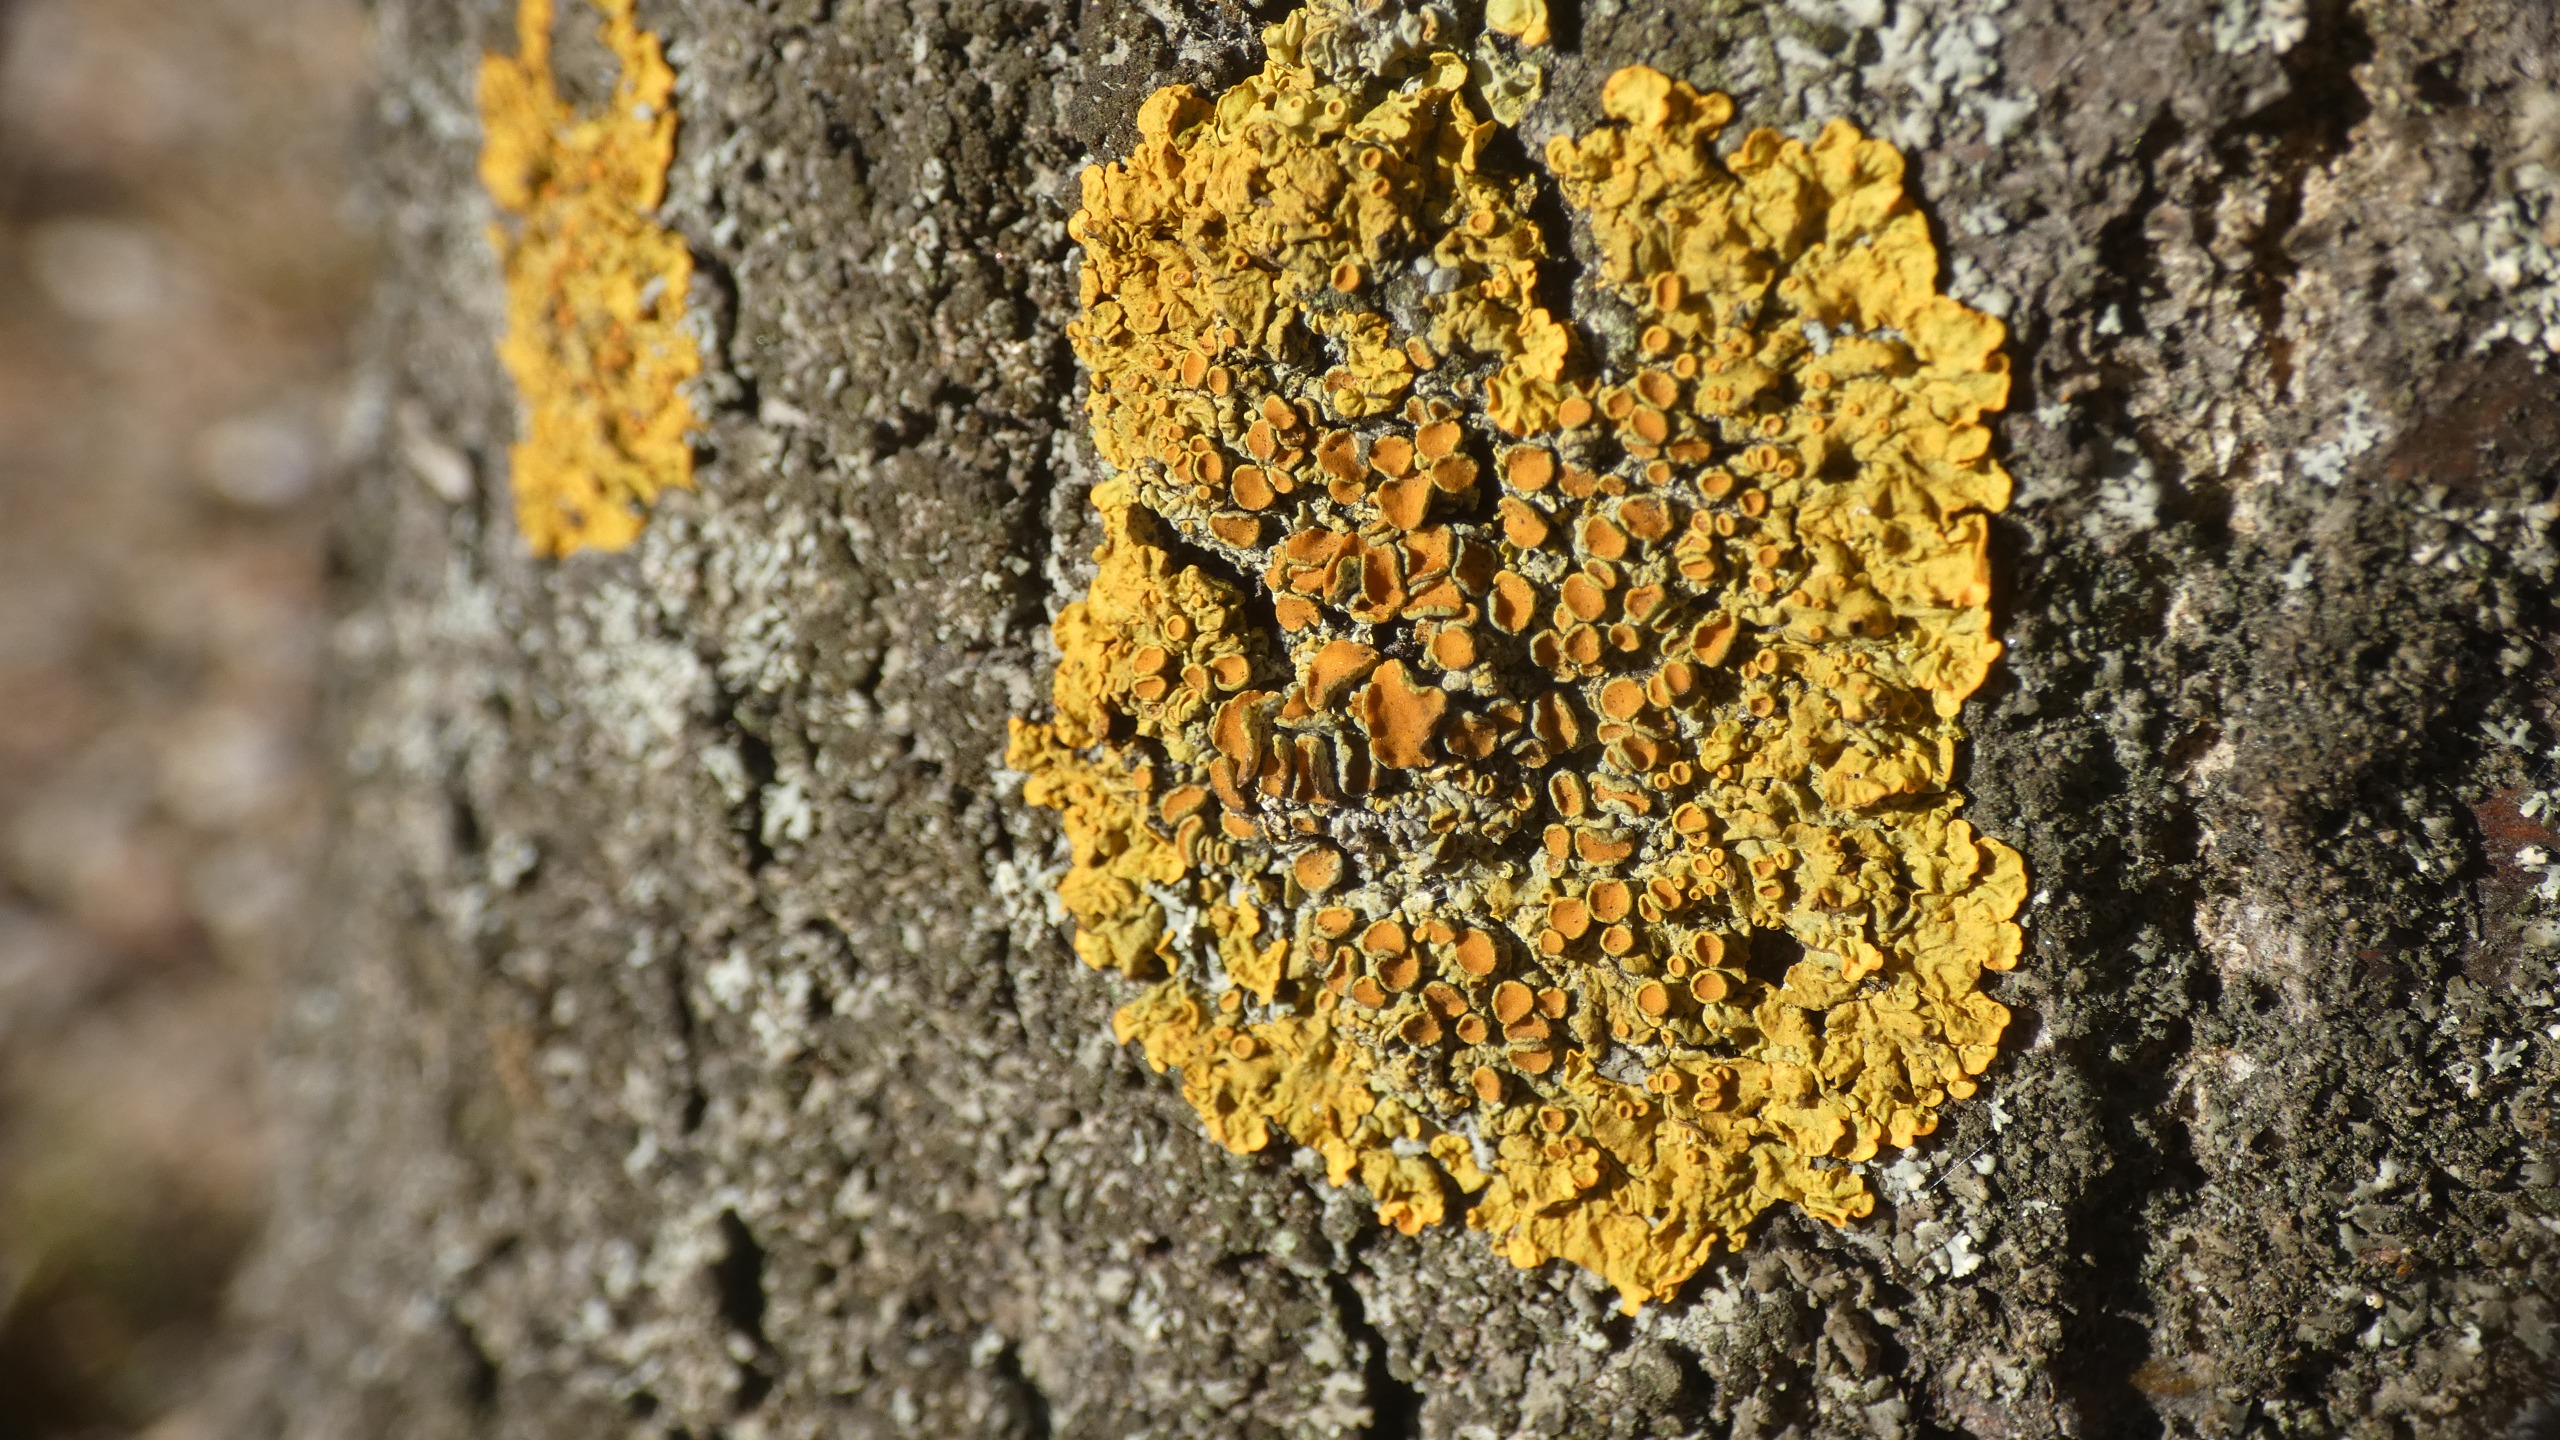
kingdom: Fungi
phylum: Ascomycota
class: Lecanoromycetes
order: Teloschistales
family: Teloschistaceae
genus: Xanthoria
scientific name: Xanthoria parietina
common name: Almindelig væggelav
